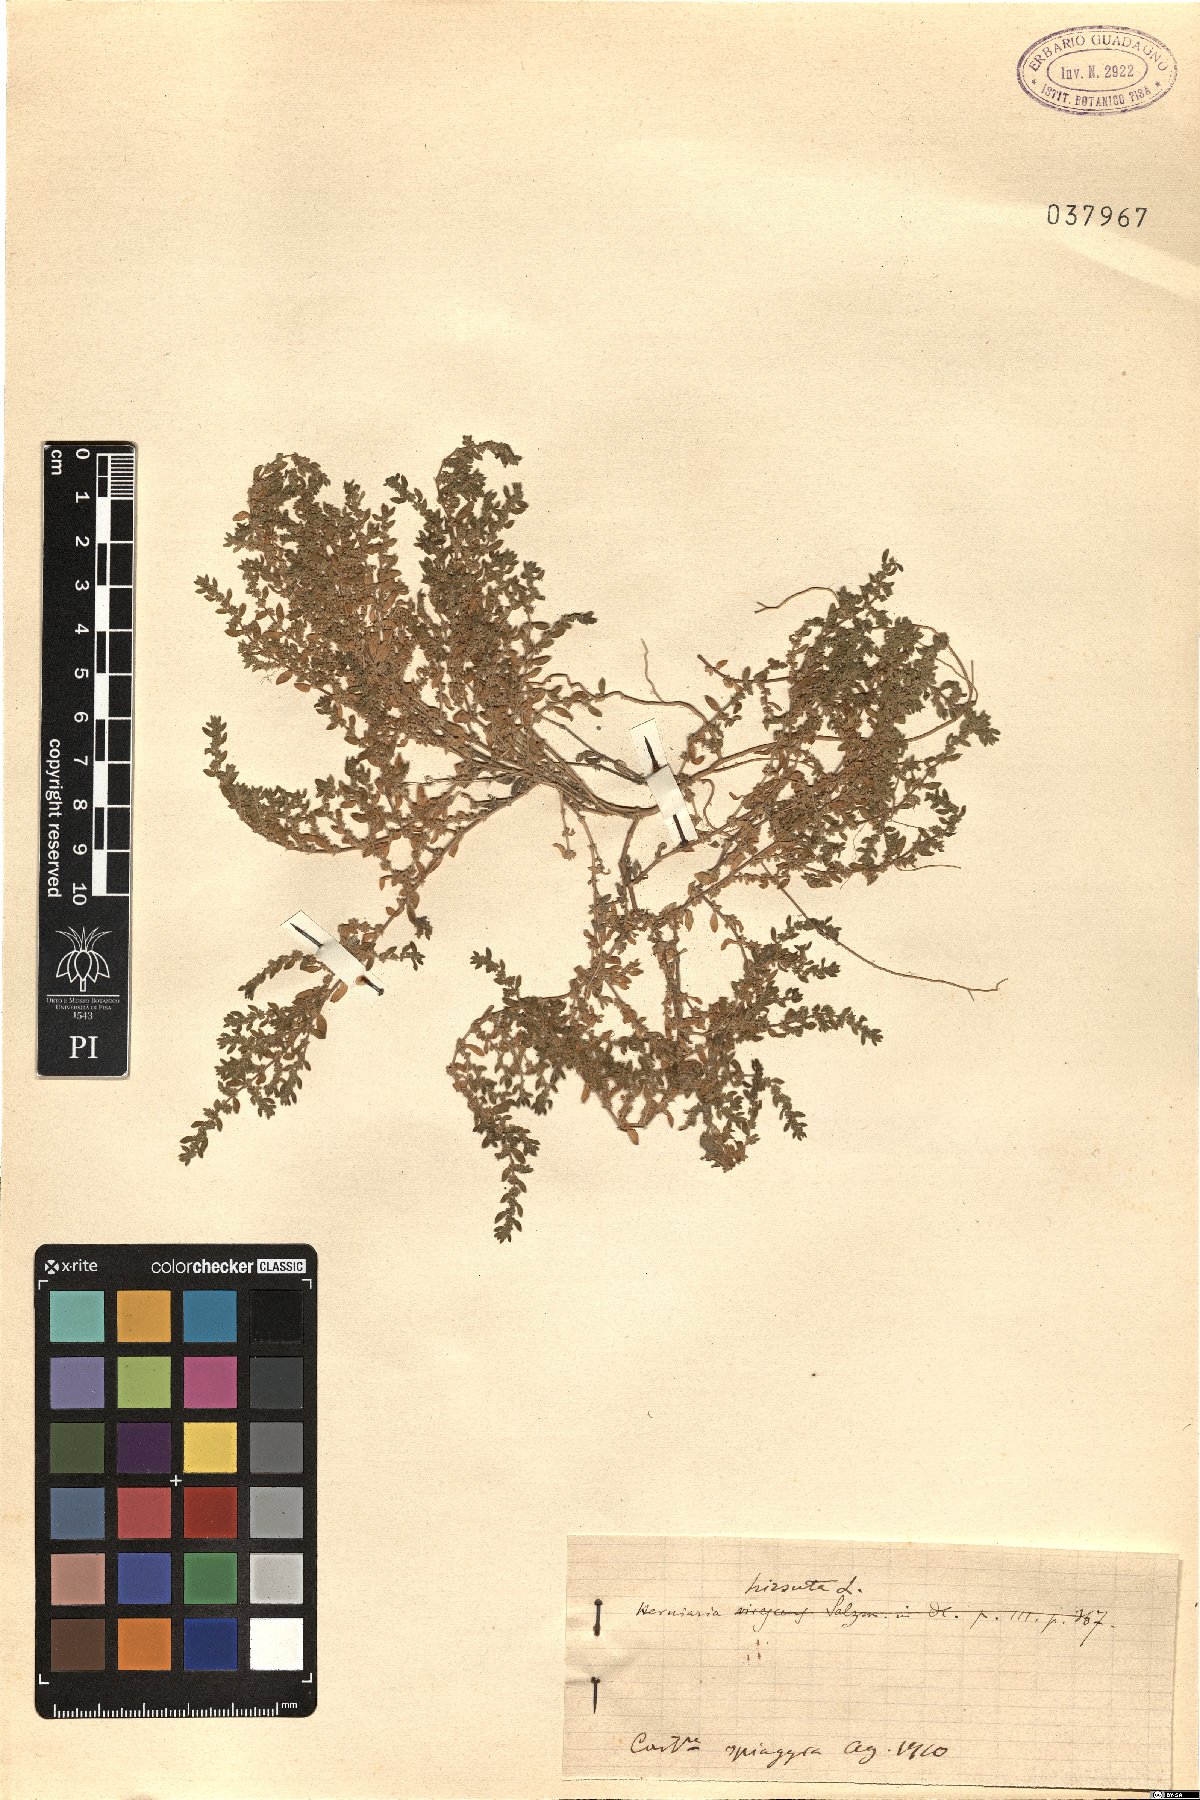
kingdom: Plantae
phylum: Tracheophyta
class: Magnoliopsida
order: Caryophyllales
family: Caryophyllaceae
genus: Herniaria
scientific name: Herniaria hirsuta
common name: Hairy rupturewort
